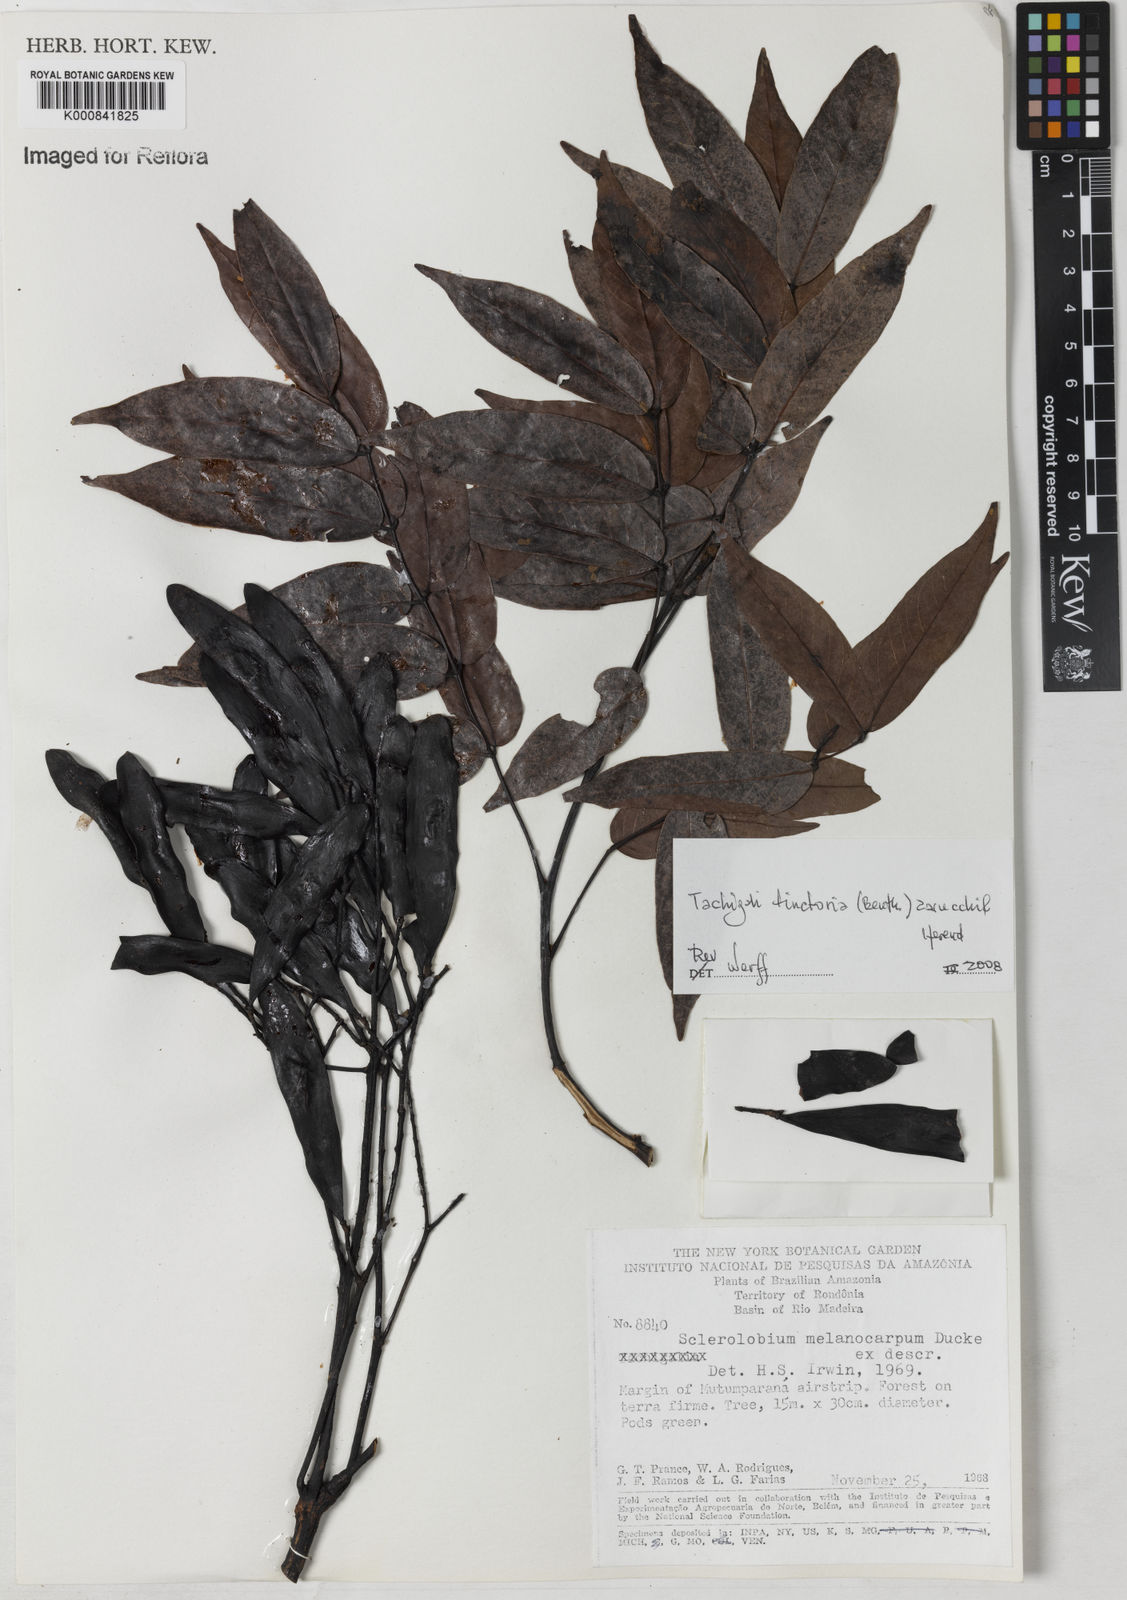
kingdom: Plantae
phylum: Tracheophyta
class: Magnoliopsida
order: Fabales
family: Fabaceae
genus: Tachigali
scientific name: Tachigali tinctoria
